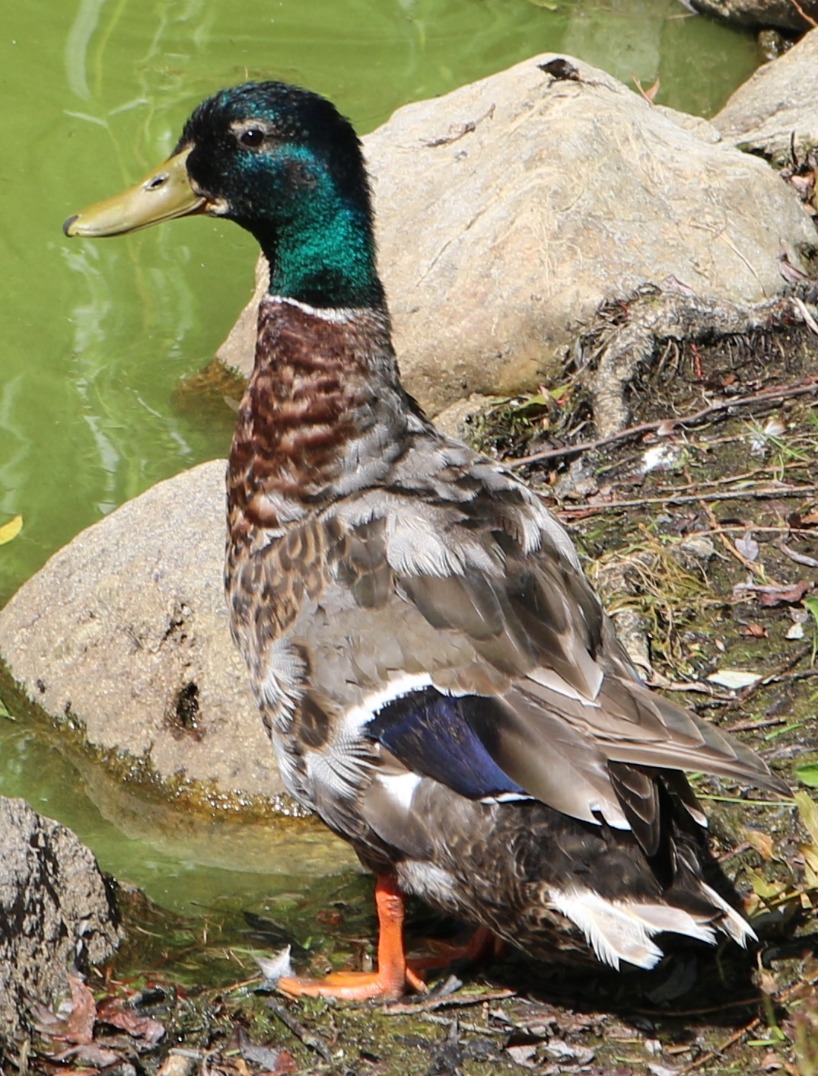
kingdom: Animalia
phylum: Chordata
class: Aves
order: Anseriformes
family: Anatidae
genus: Anas
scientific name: Anas platyrhynchos
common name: Gråand
